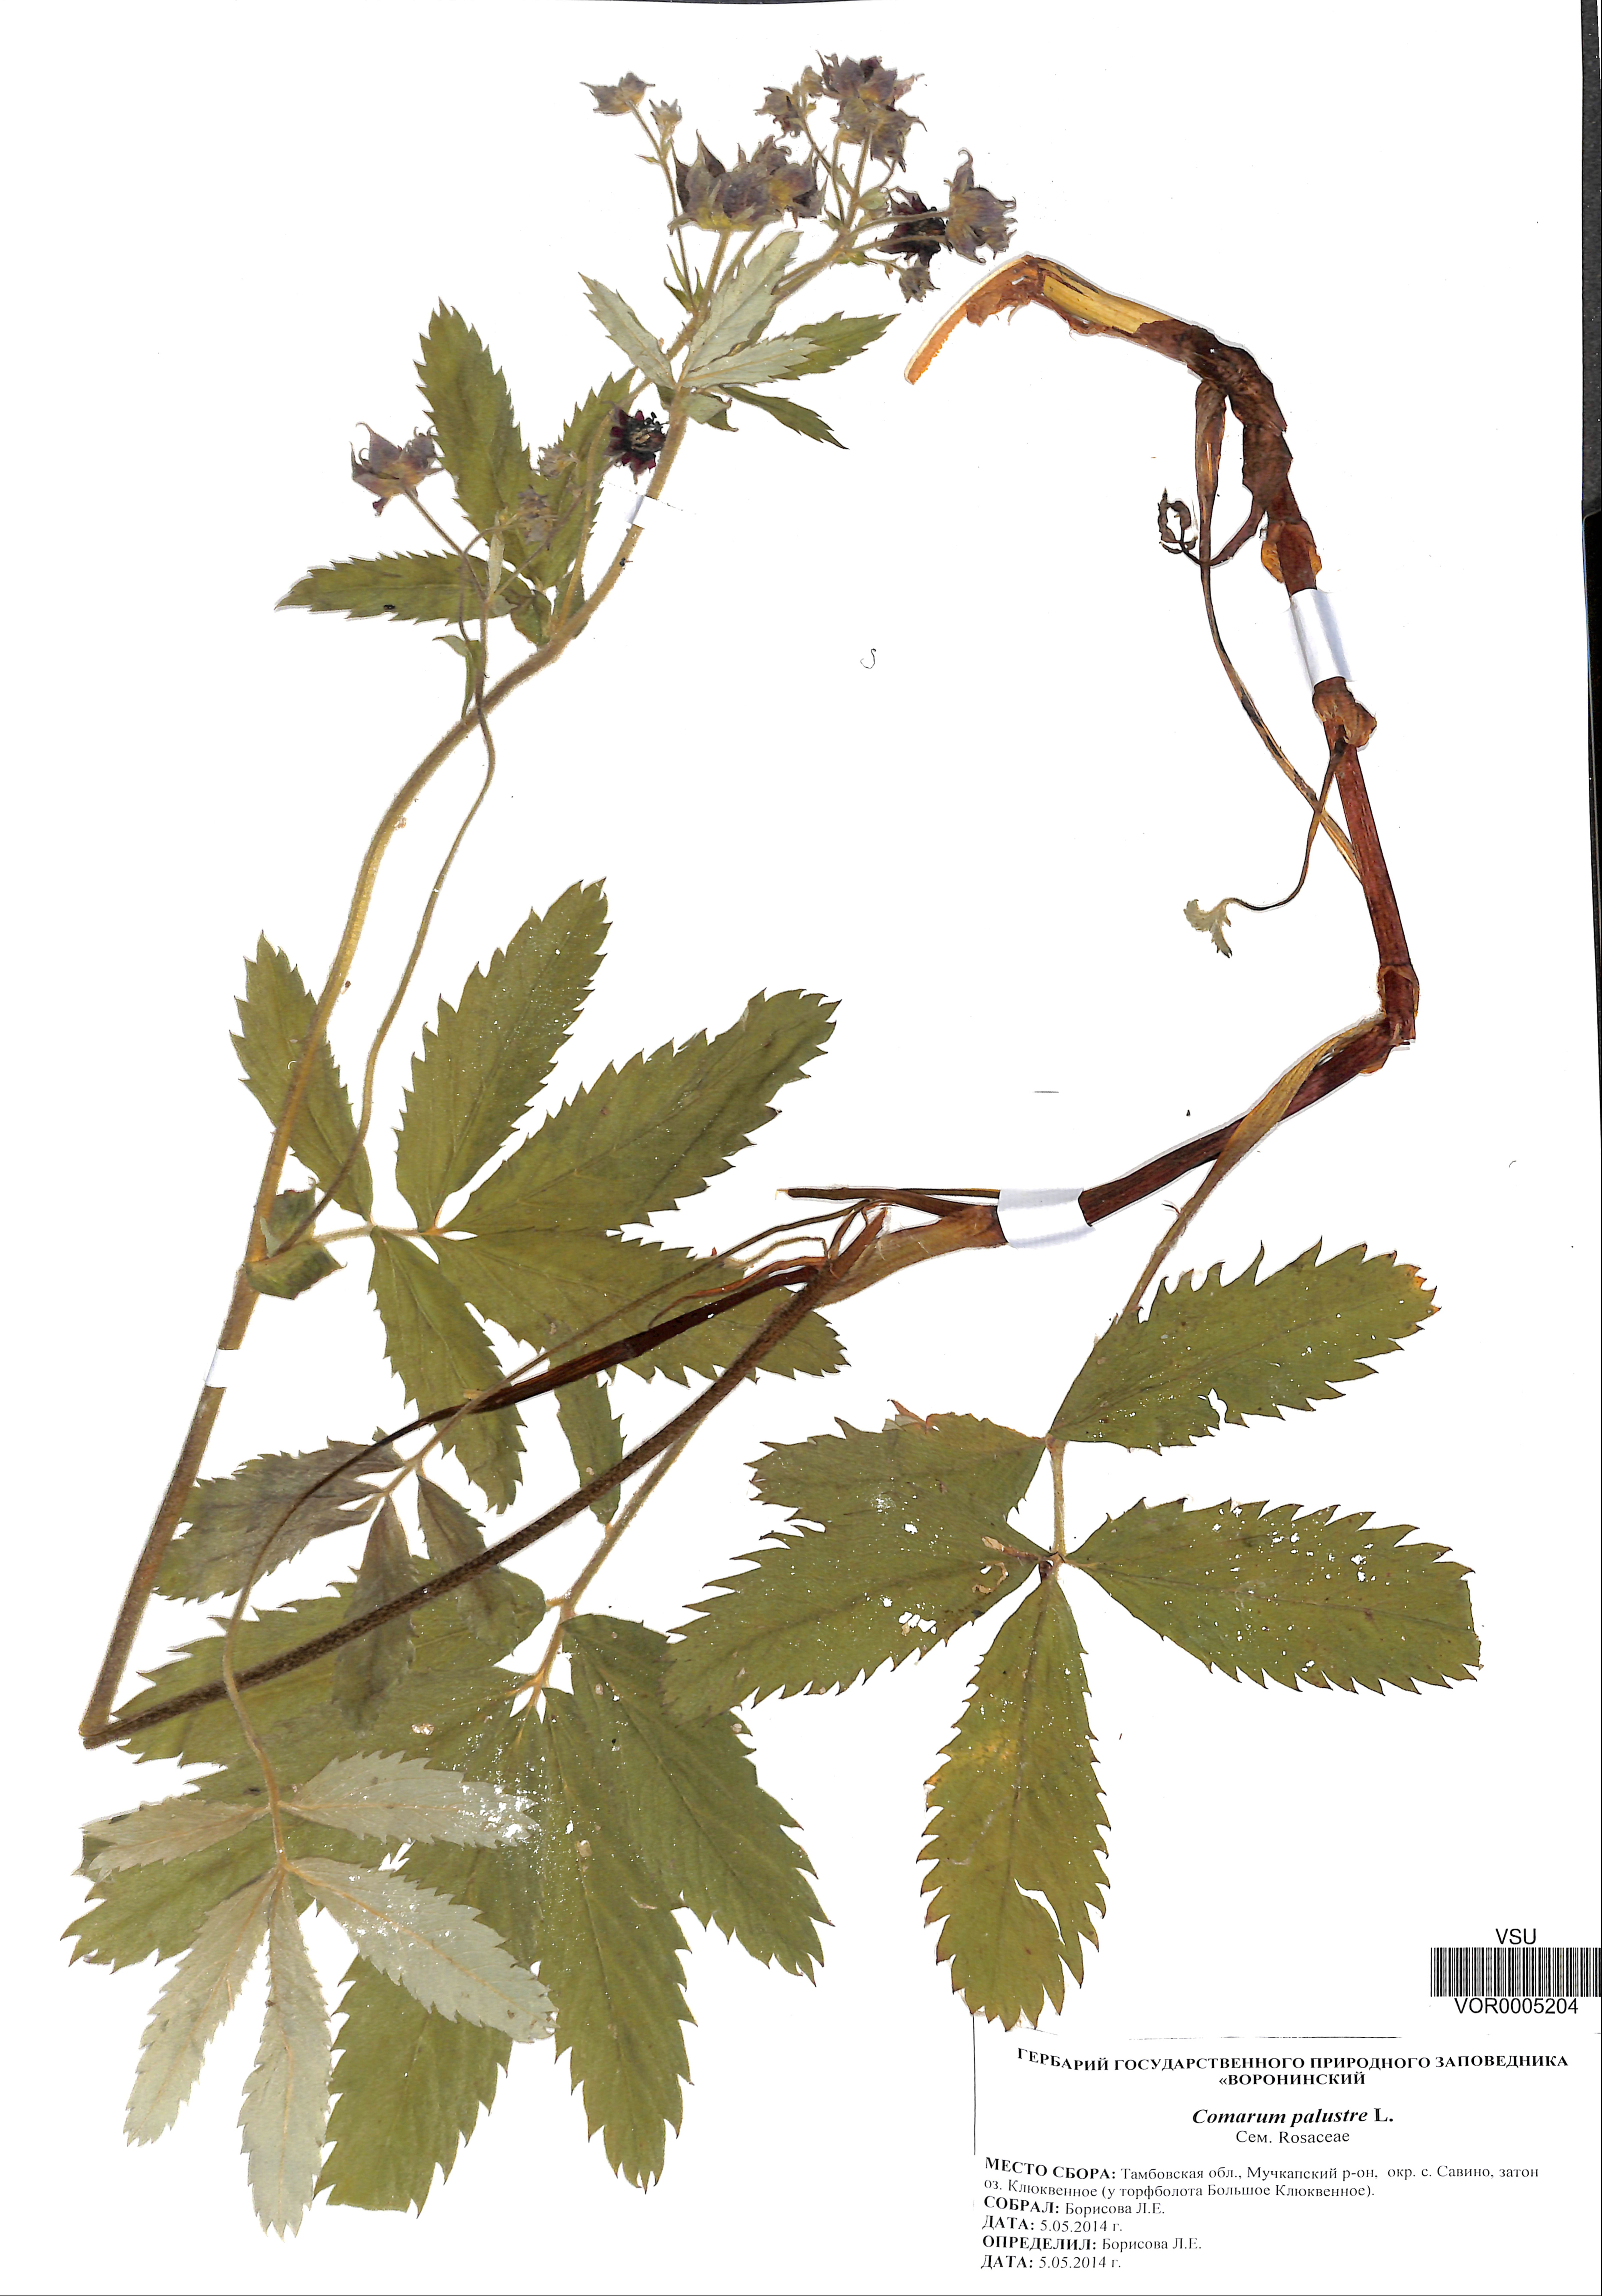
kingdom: Plantae
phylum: Tracheophyta
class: Magnoliopsida
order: Rosales
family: Rosaceae
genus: Comarum
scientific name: Comarum palustre
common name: Marsh cinquefoil
